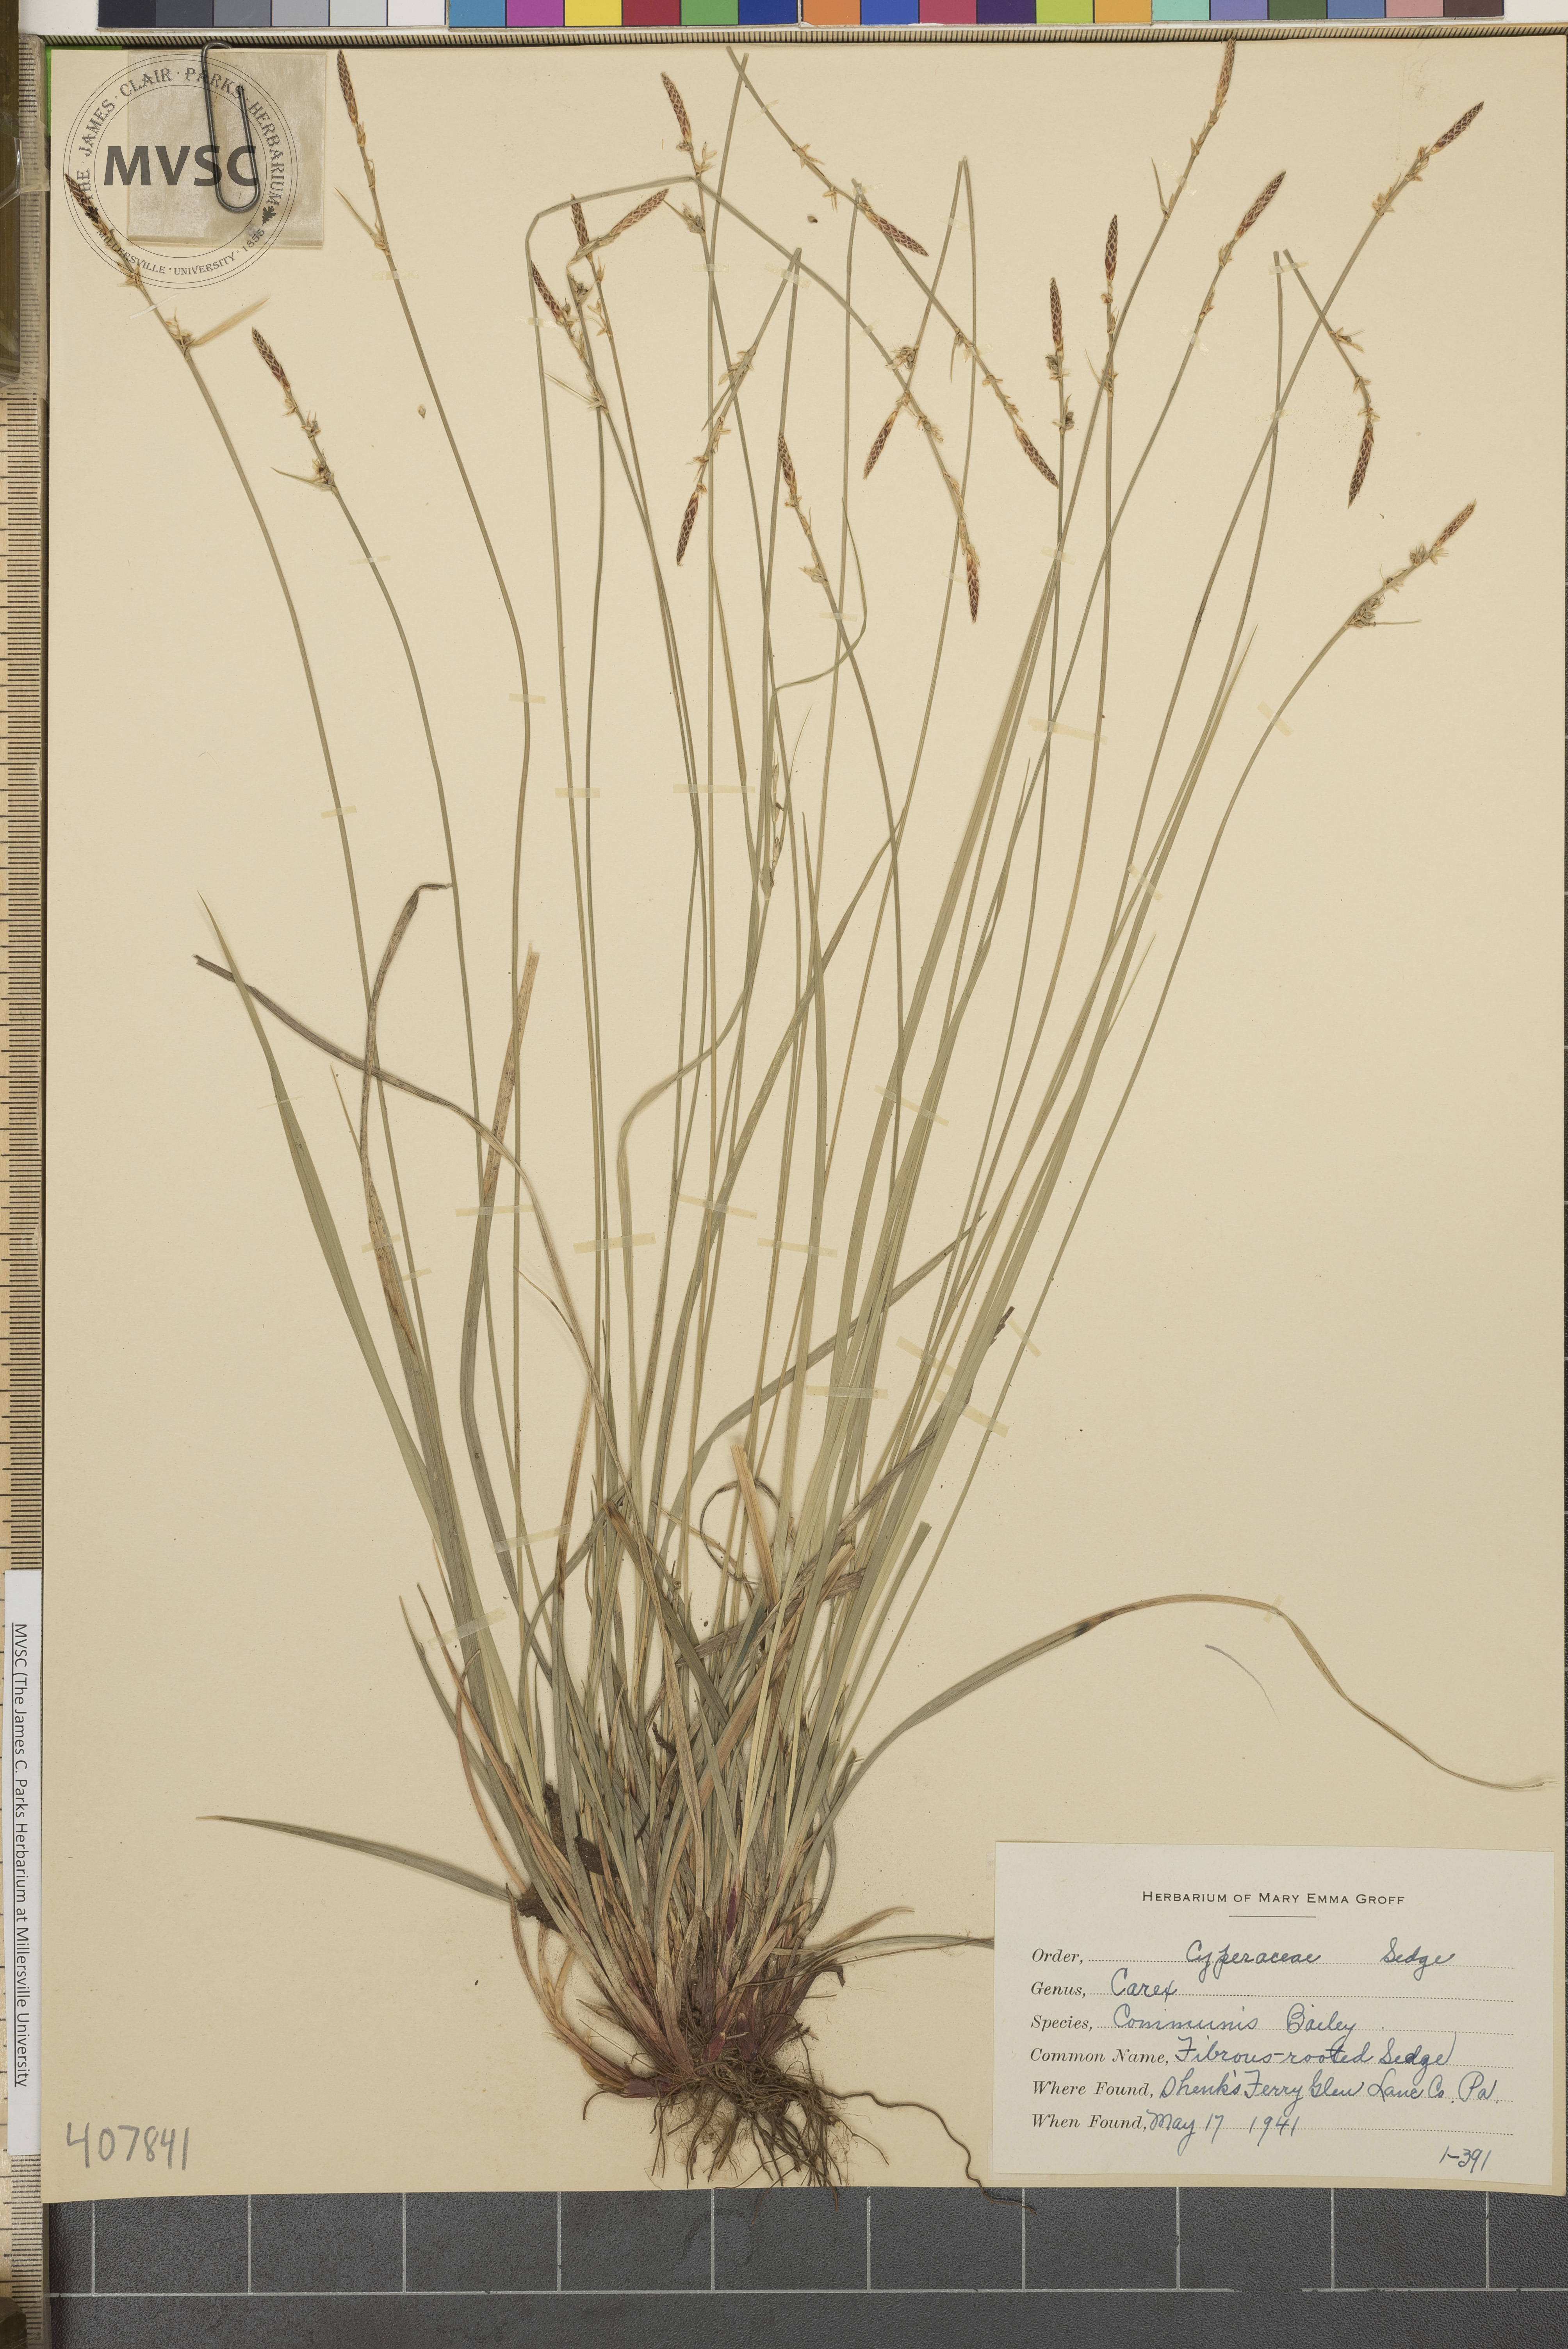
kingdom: Plantae
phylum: Tracheophyta
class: Liliopsida
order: Poales
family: Cyperaceae
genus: Carex
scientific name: Carex communis
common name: Fibrous-rooted Sedge
